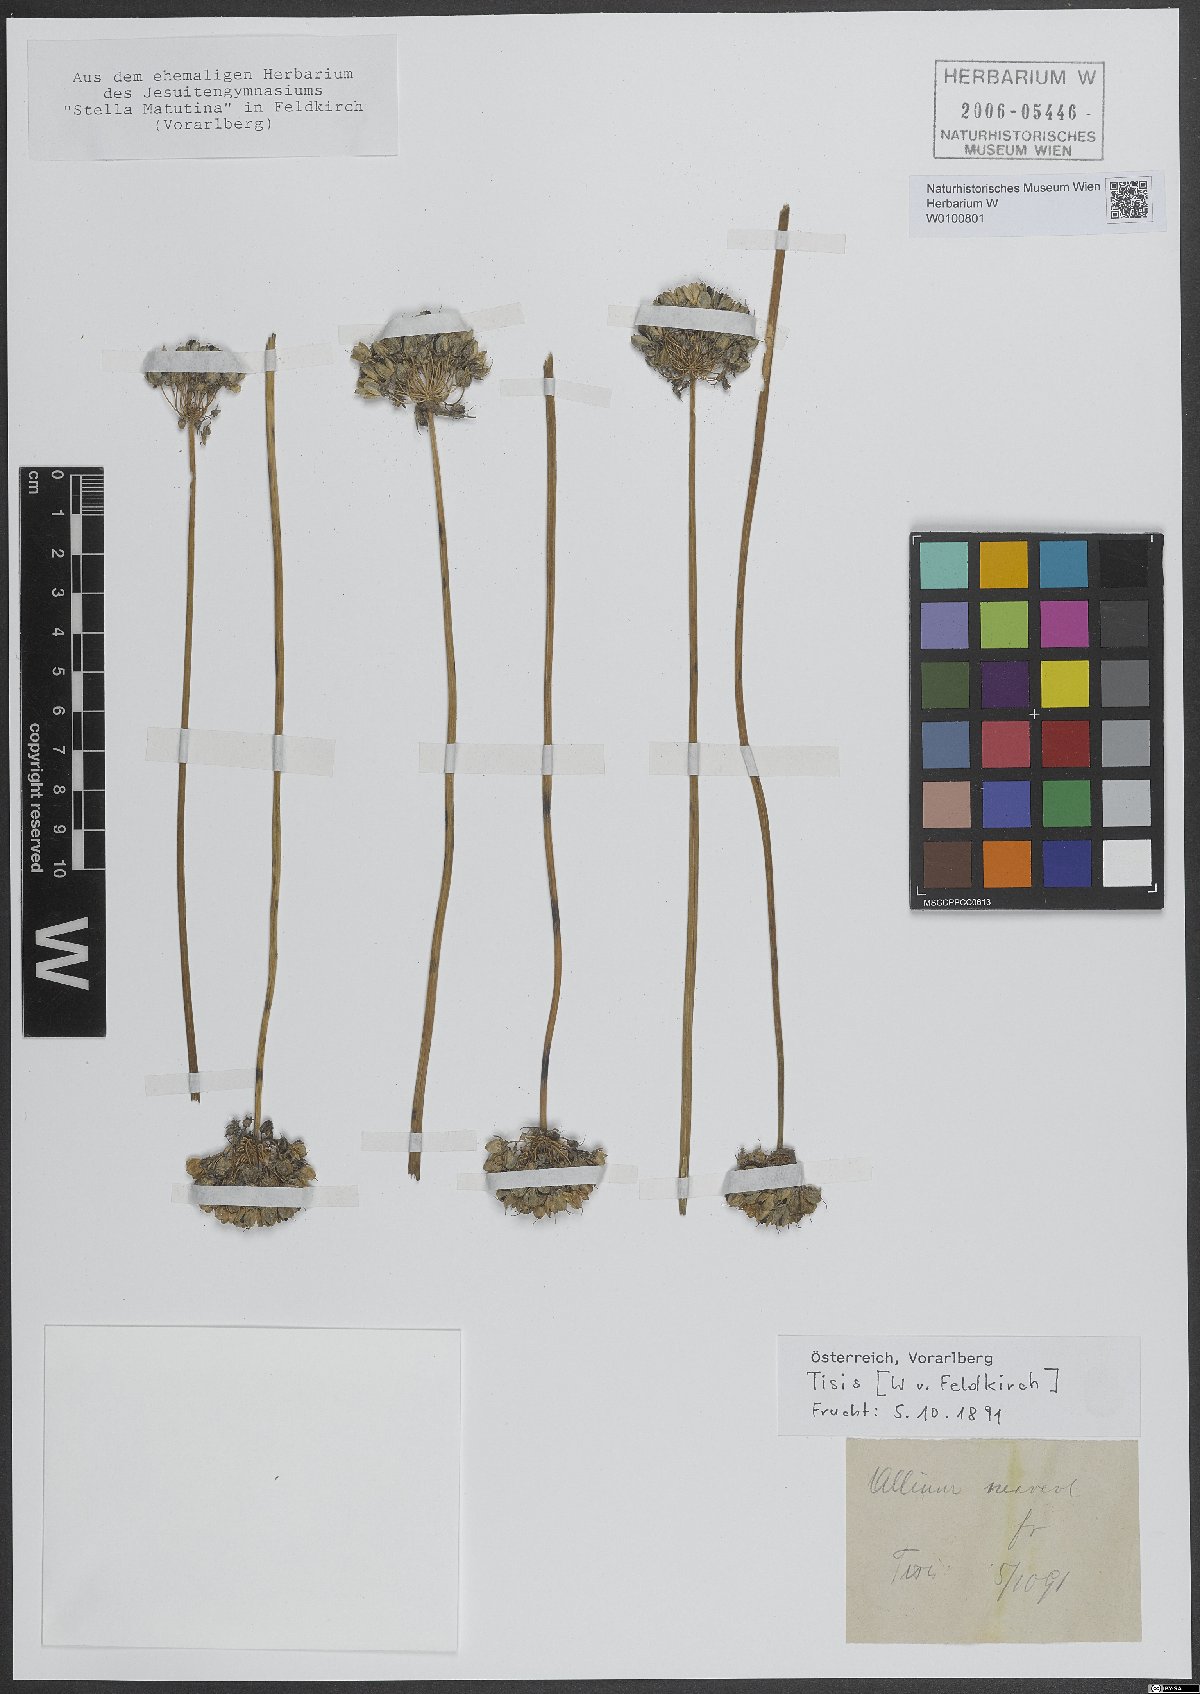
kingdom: Plantae
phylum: Tracheophyta
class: Liliopsida
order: Asparagales
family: Amaryllidaceae
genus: Allium
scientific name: Allium suaveolens
